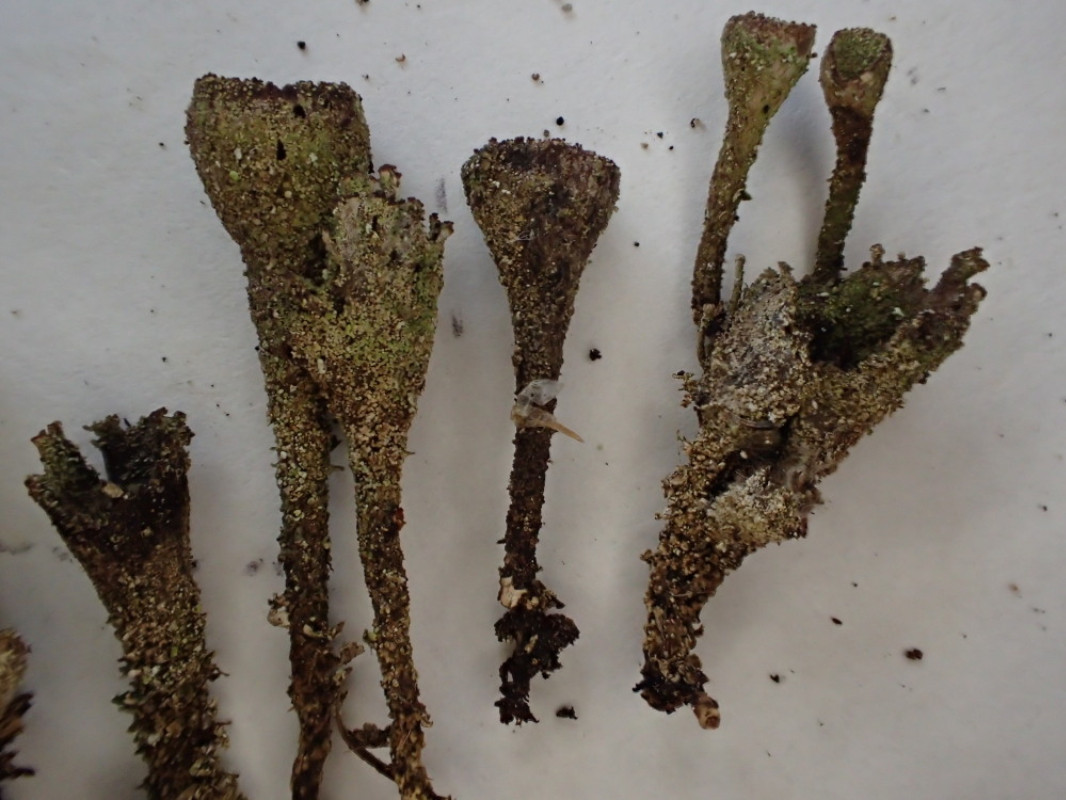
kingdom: Fungi
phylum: Ascomycota
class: Lecanoromycetes
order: Lecanorales
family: Cladoniaceae
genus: Cladonia
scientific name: Cladonia merochlorophaea
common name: mørk bægerlav
